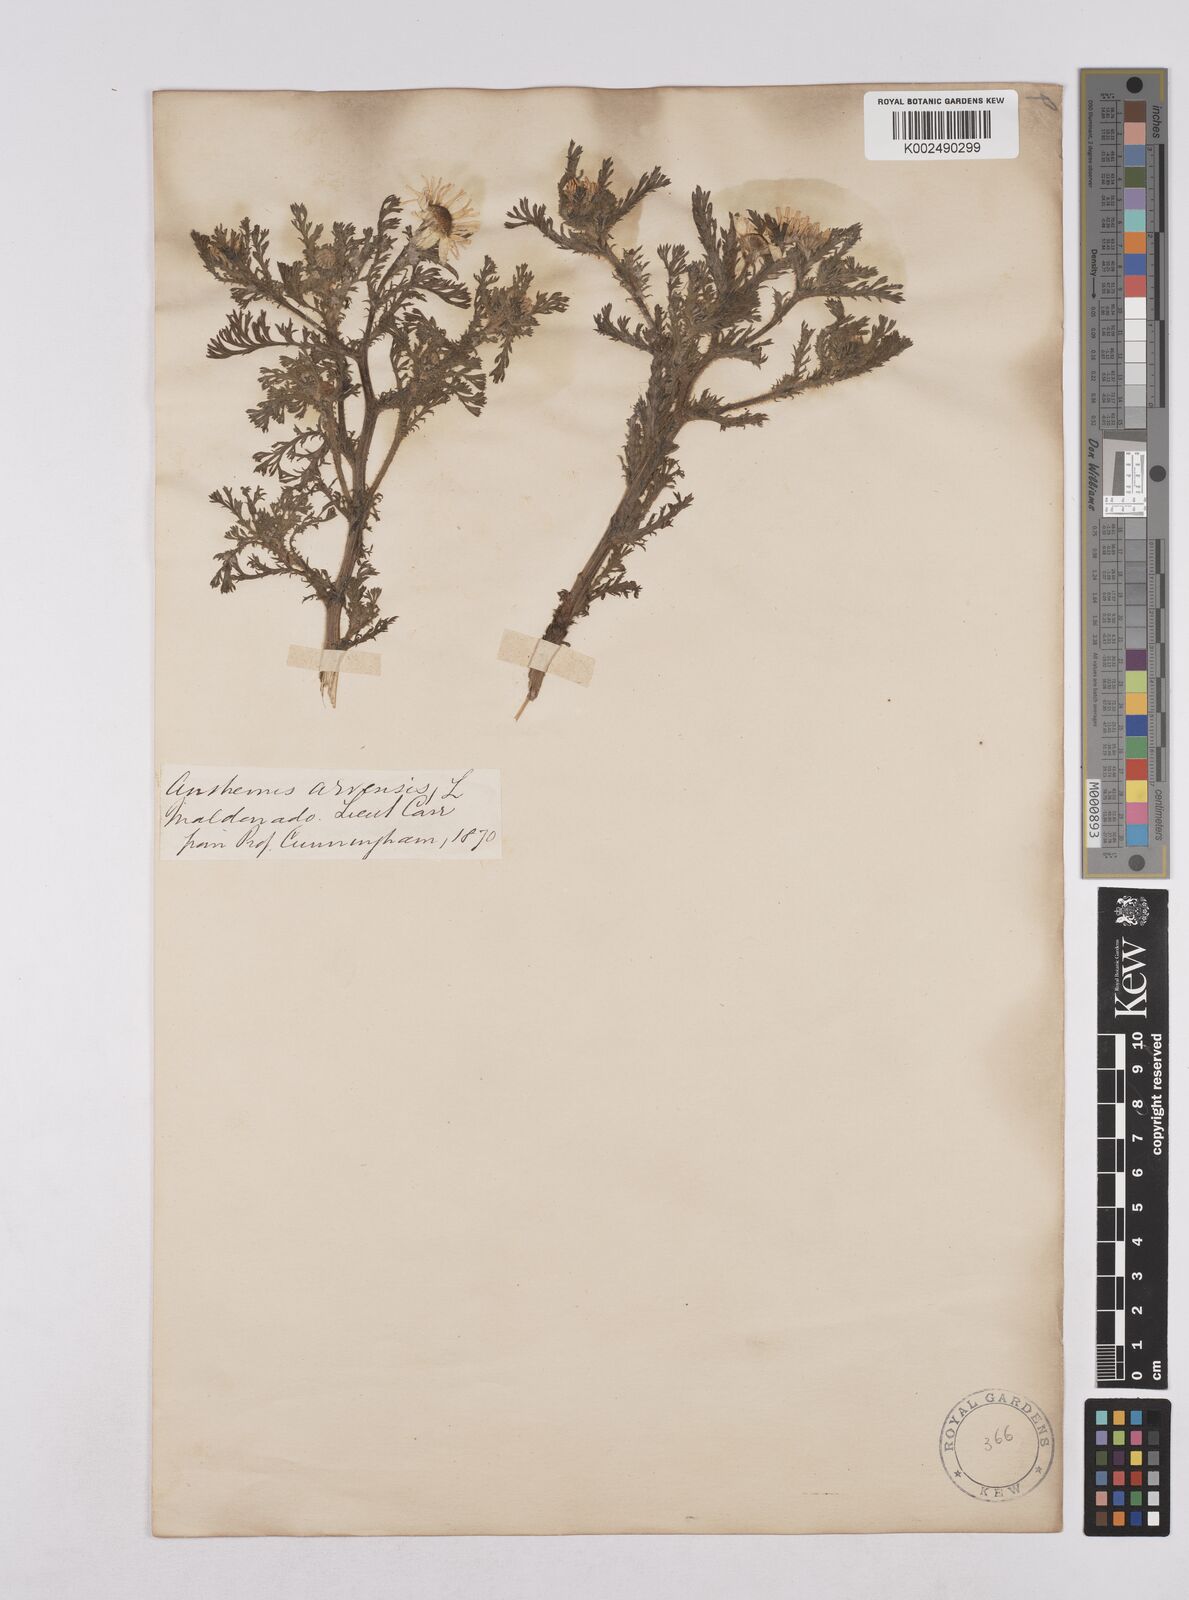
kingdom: Plantae
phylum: Tracheophyta
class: Magnoliopsida
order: Asterales
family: Asteraceae
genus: Anthemis
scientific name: Anthemis arvensis
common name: Corn chamomile
